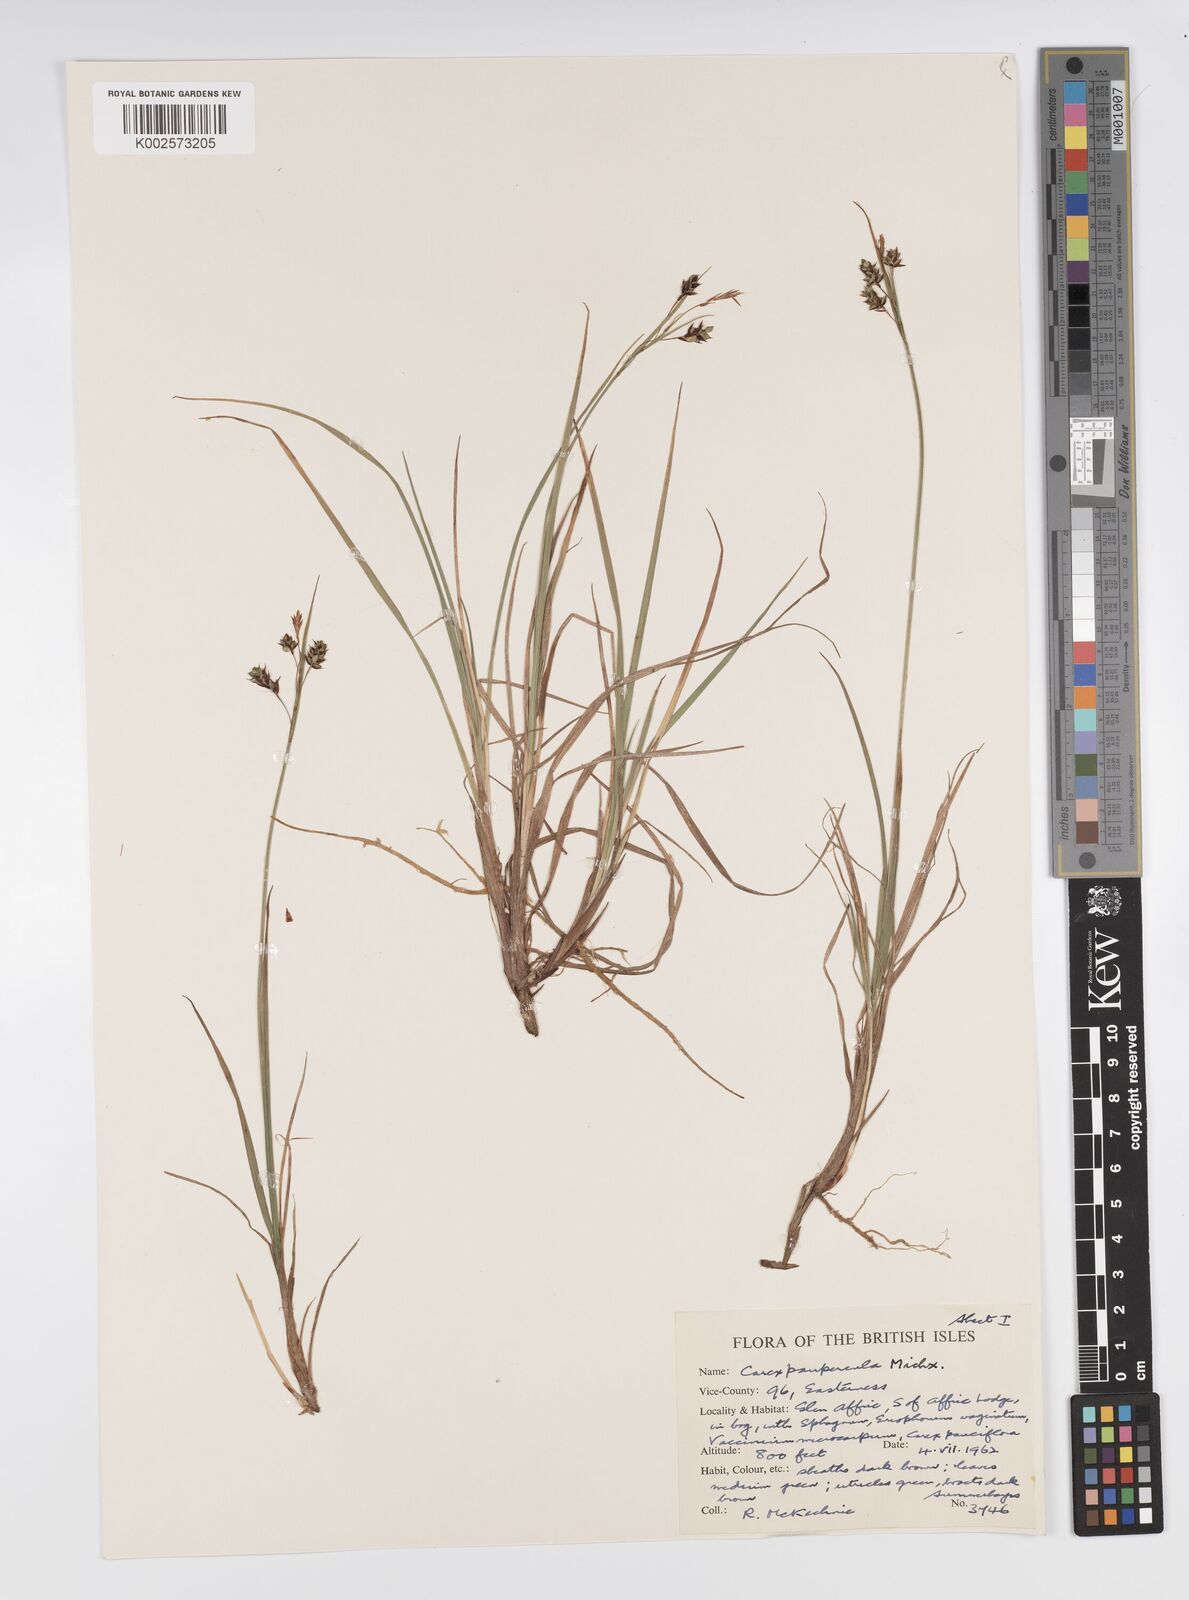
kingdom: Plantae
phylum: Tracheophyta
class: Liliopsida
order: Poales
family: Cyperaceae
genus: Carex
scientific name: Carex magellanica
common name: Bog sedge
